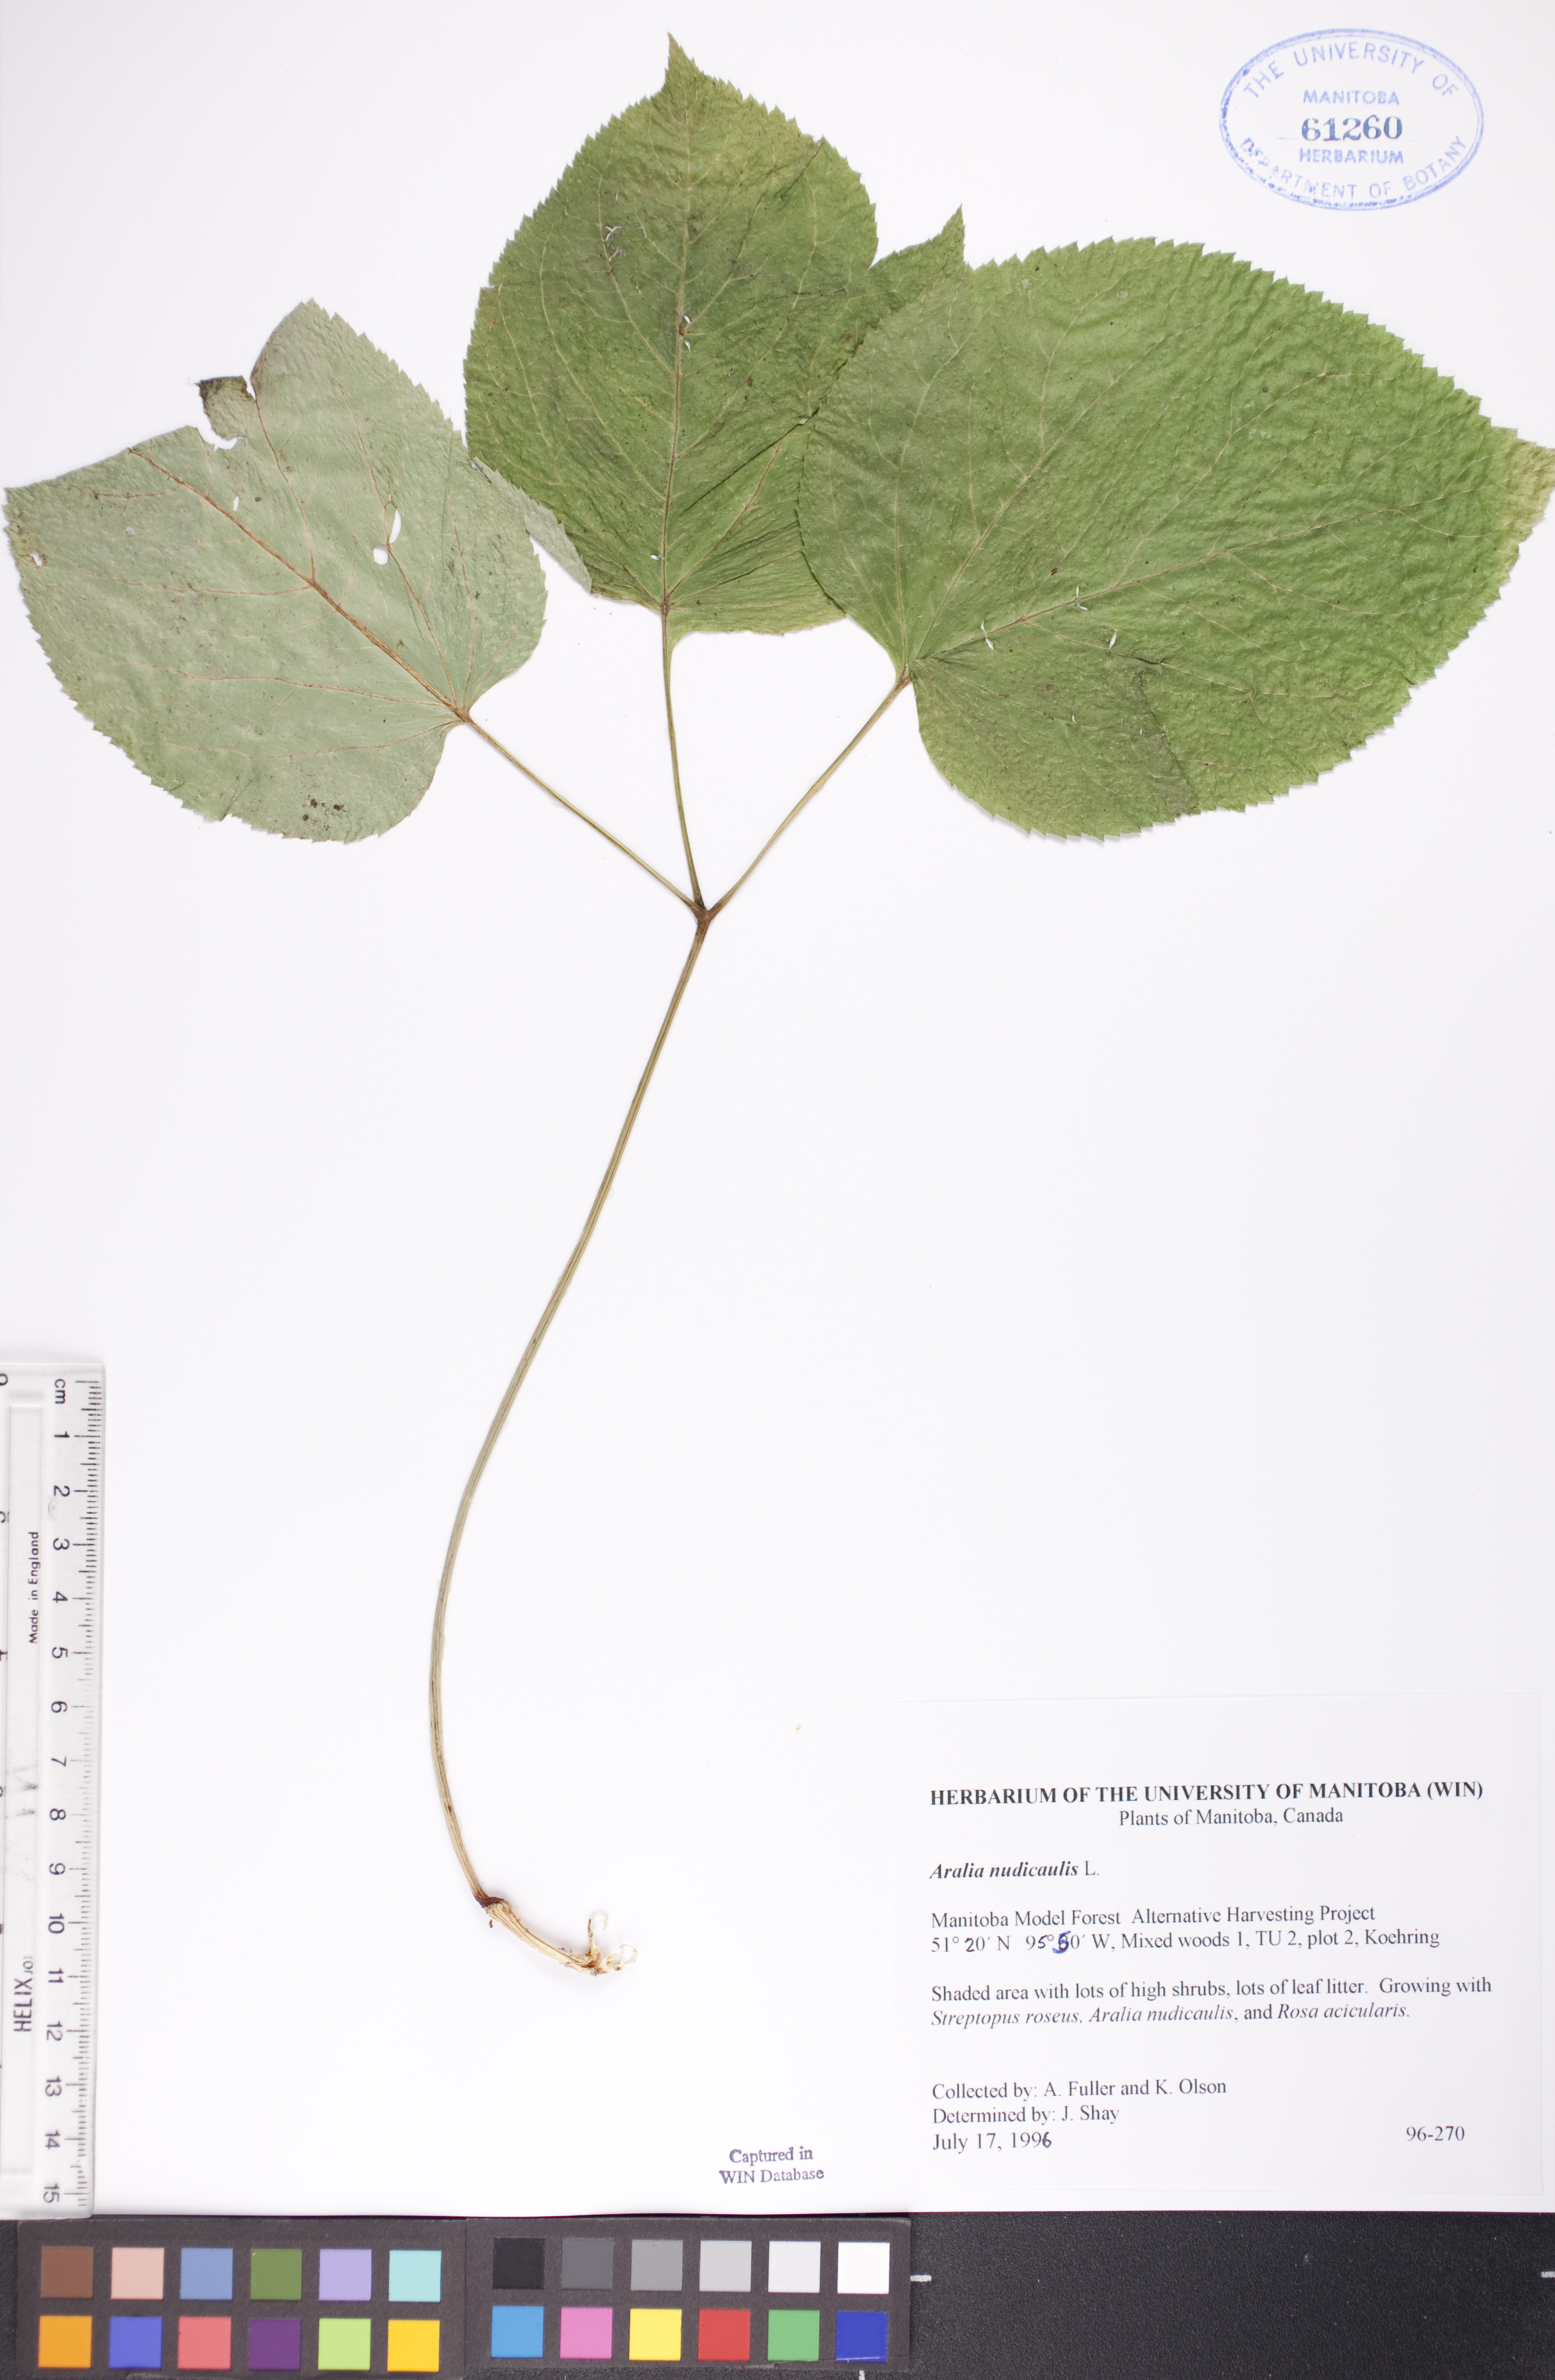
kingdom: Plantae
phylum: Tracheophyta
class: Magnoliopsida
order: Apiales
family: Araliaceae
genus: Aralia
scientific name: Aralia nudicaulis
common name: Wild sarsaparilla
